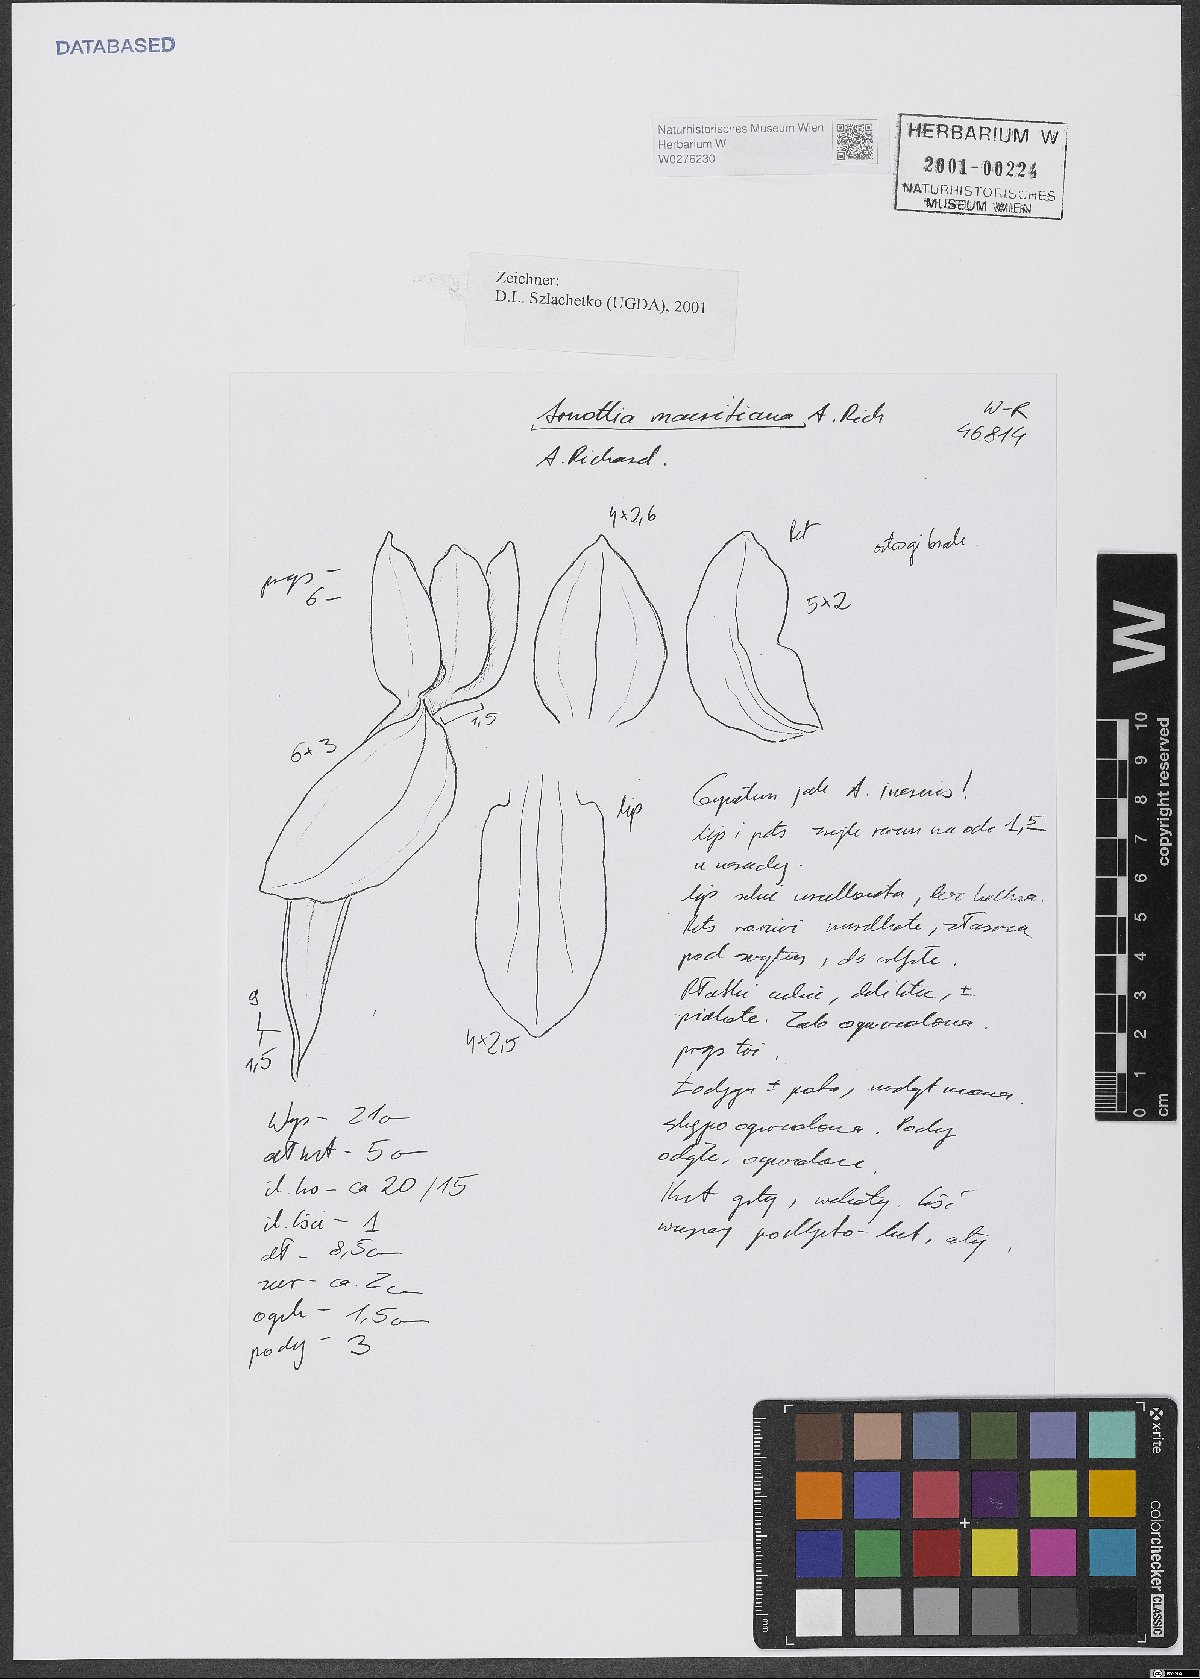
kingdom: Plantae
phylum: Tracheophyta
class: Liliopsida
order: Asparagales
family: Orchidaceae
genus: Cynorkis
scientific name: Cynorkis inermis
